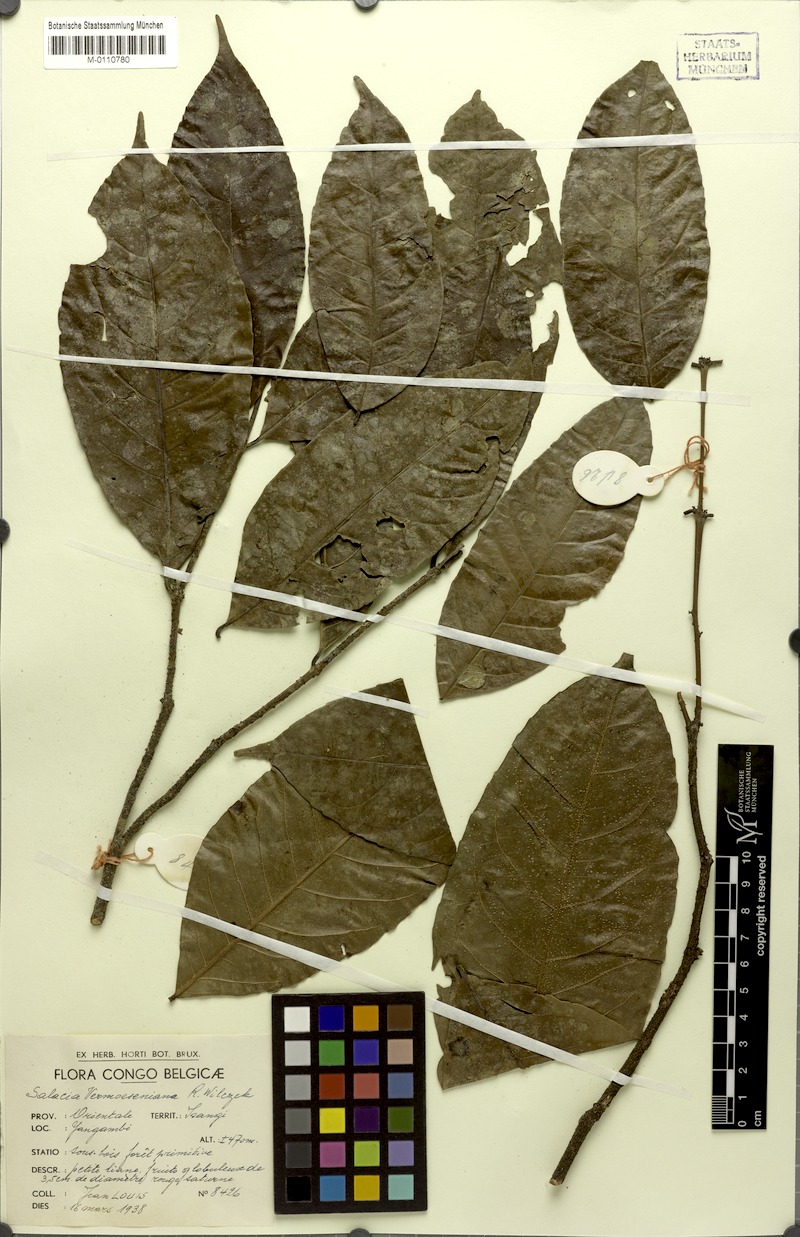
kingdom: Plantae
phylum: Tracheophyta
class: Magnoliopsida
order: Celastrales
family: Celastraceae
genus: Salacia
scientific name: Salacia whytei
